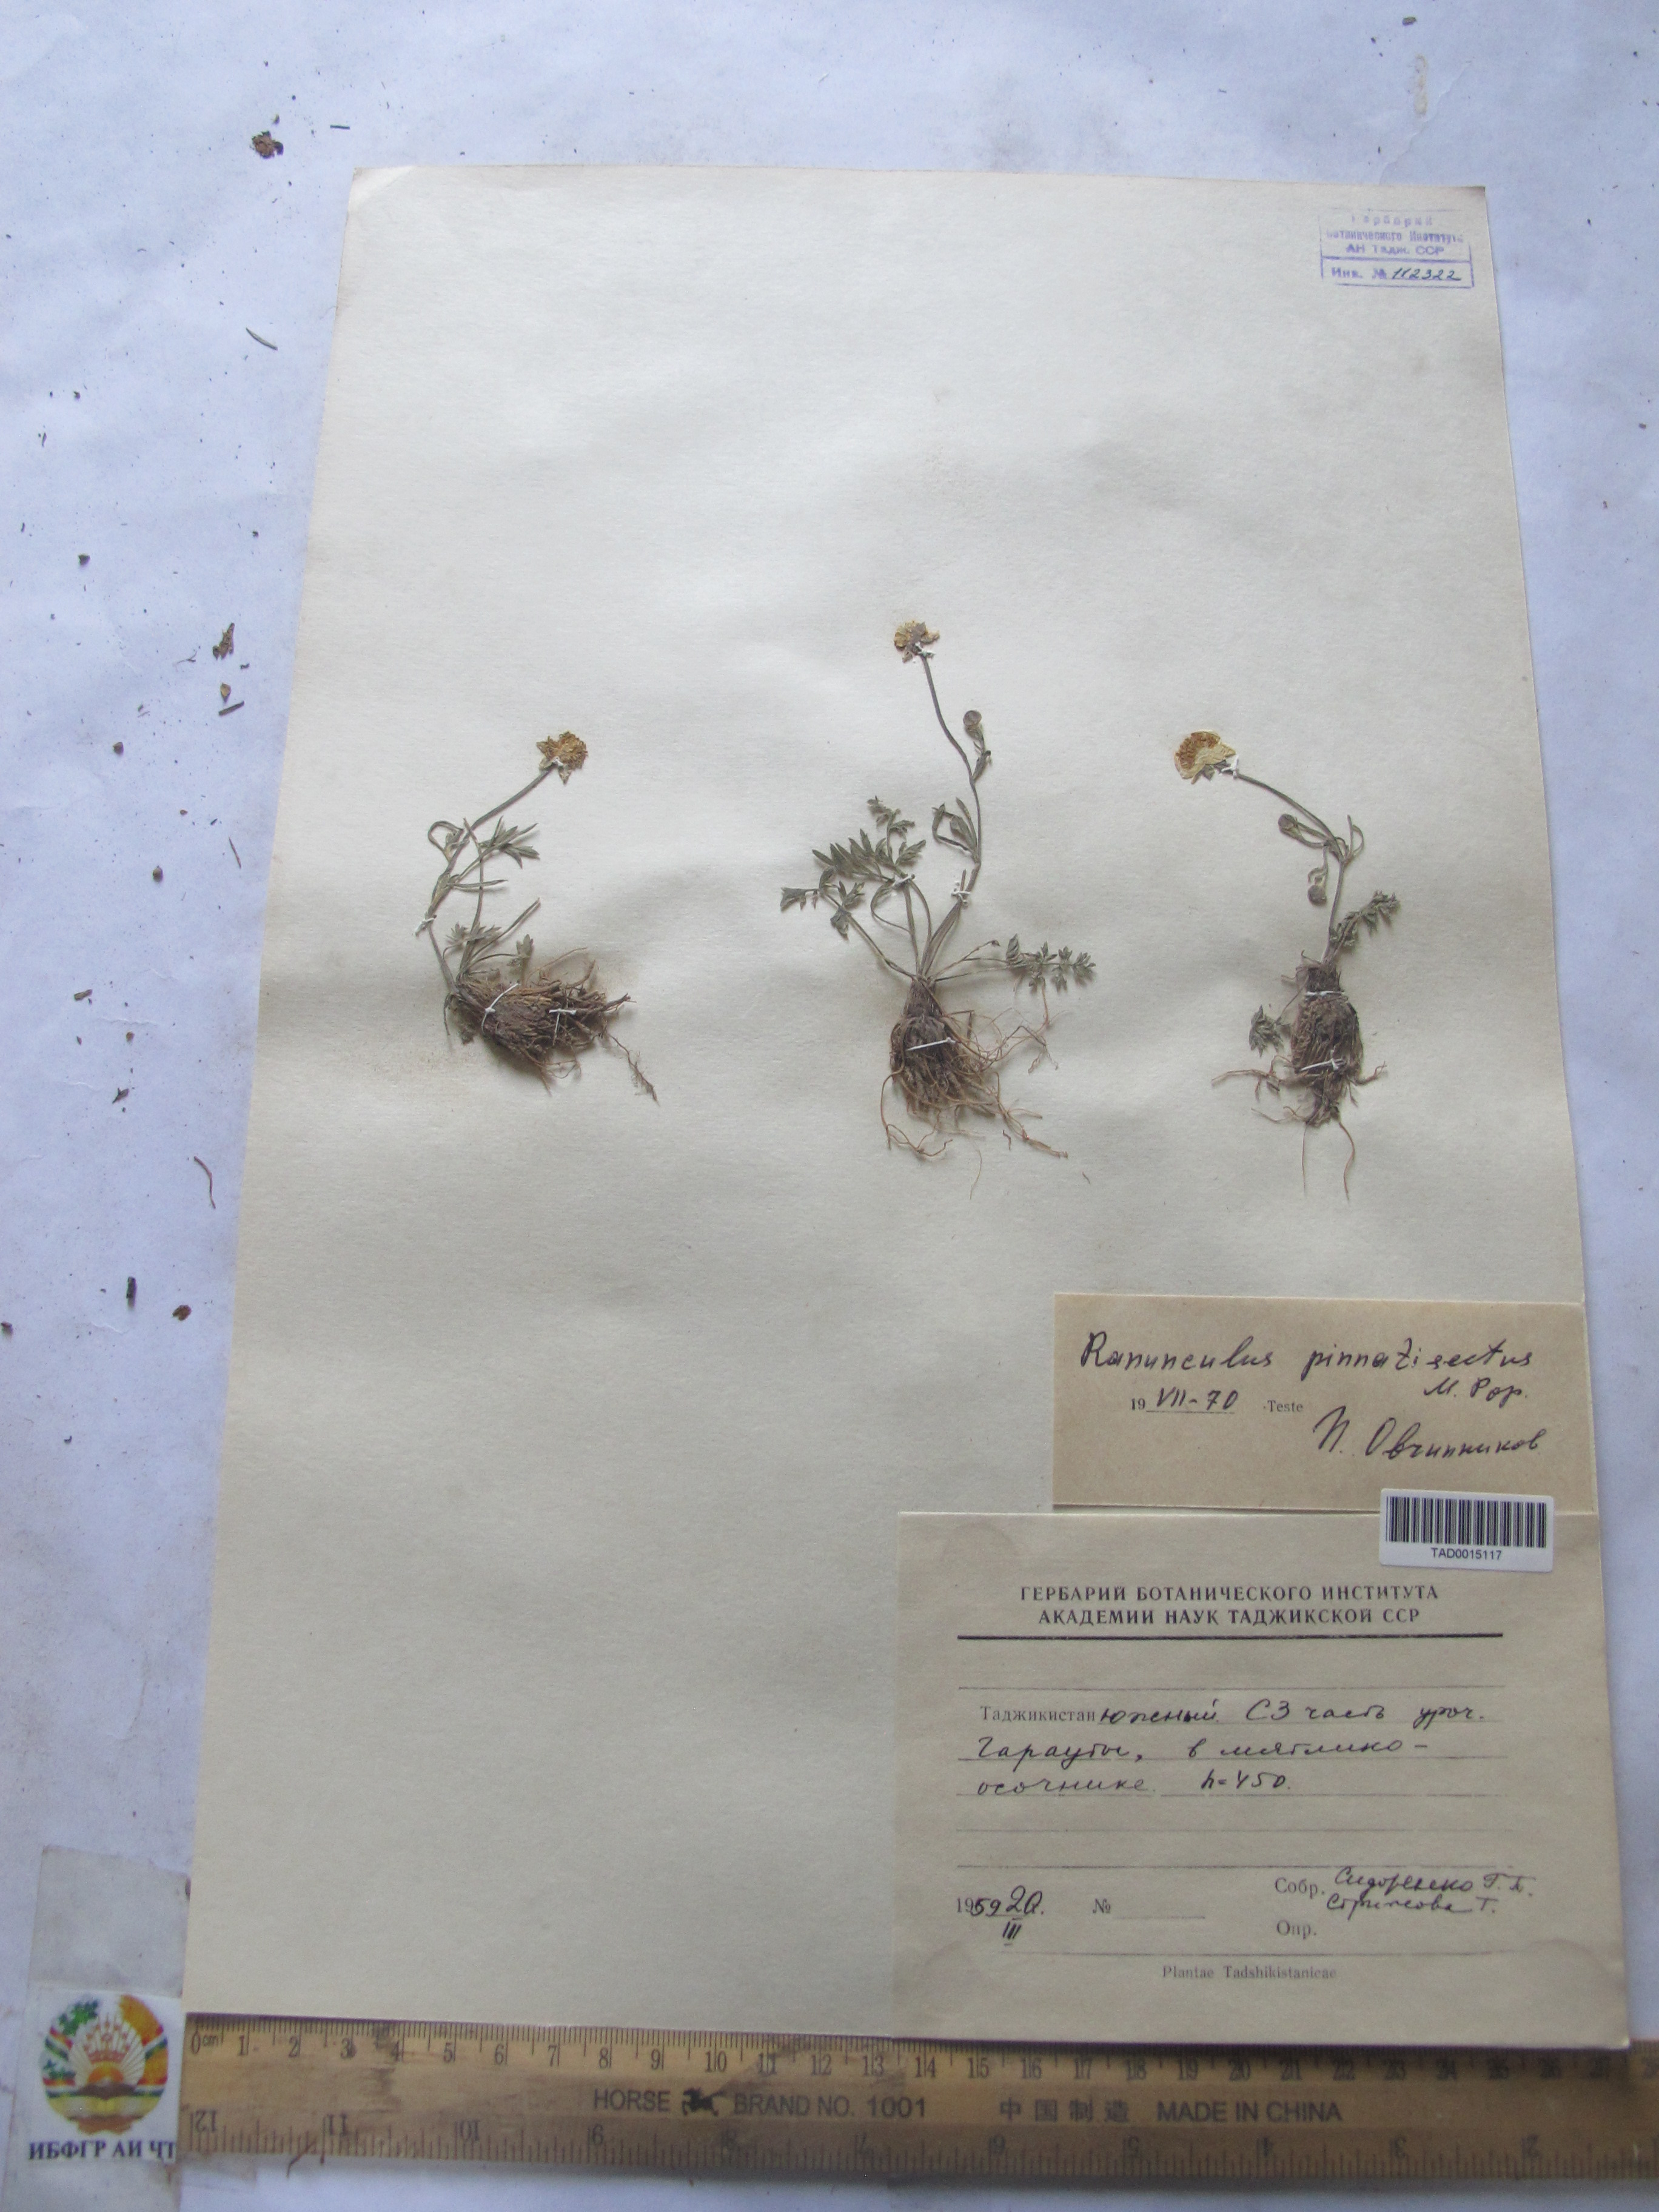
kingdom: Plantae
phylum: Tracheophyta
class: Magnoliopsida
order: Ranunculales
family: Ranunculaceae
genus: Ranunculus
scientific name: Ranunculus pinnatisectus
